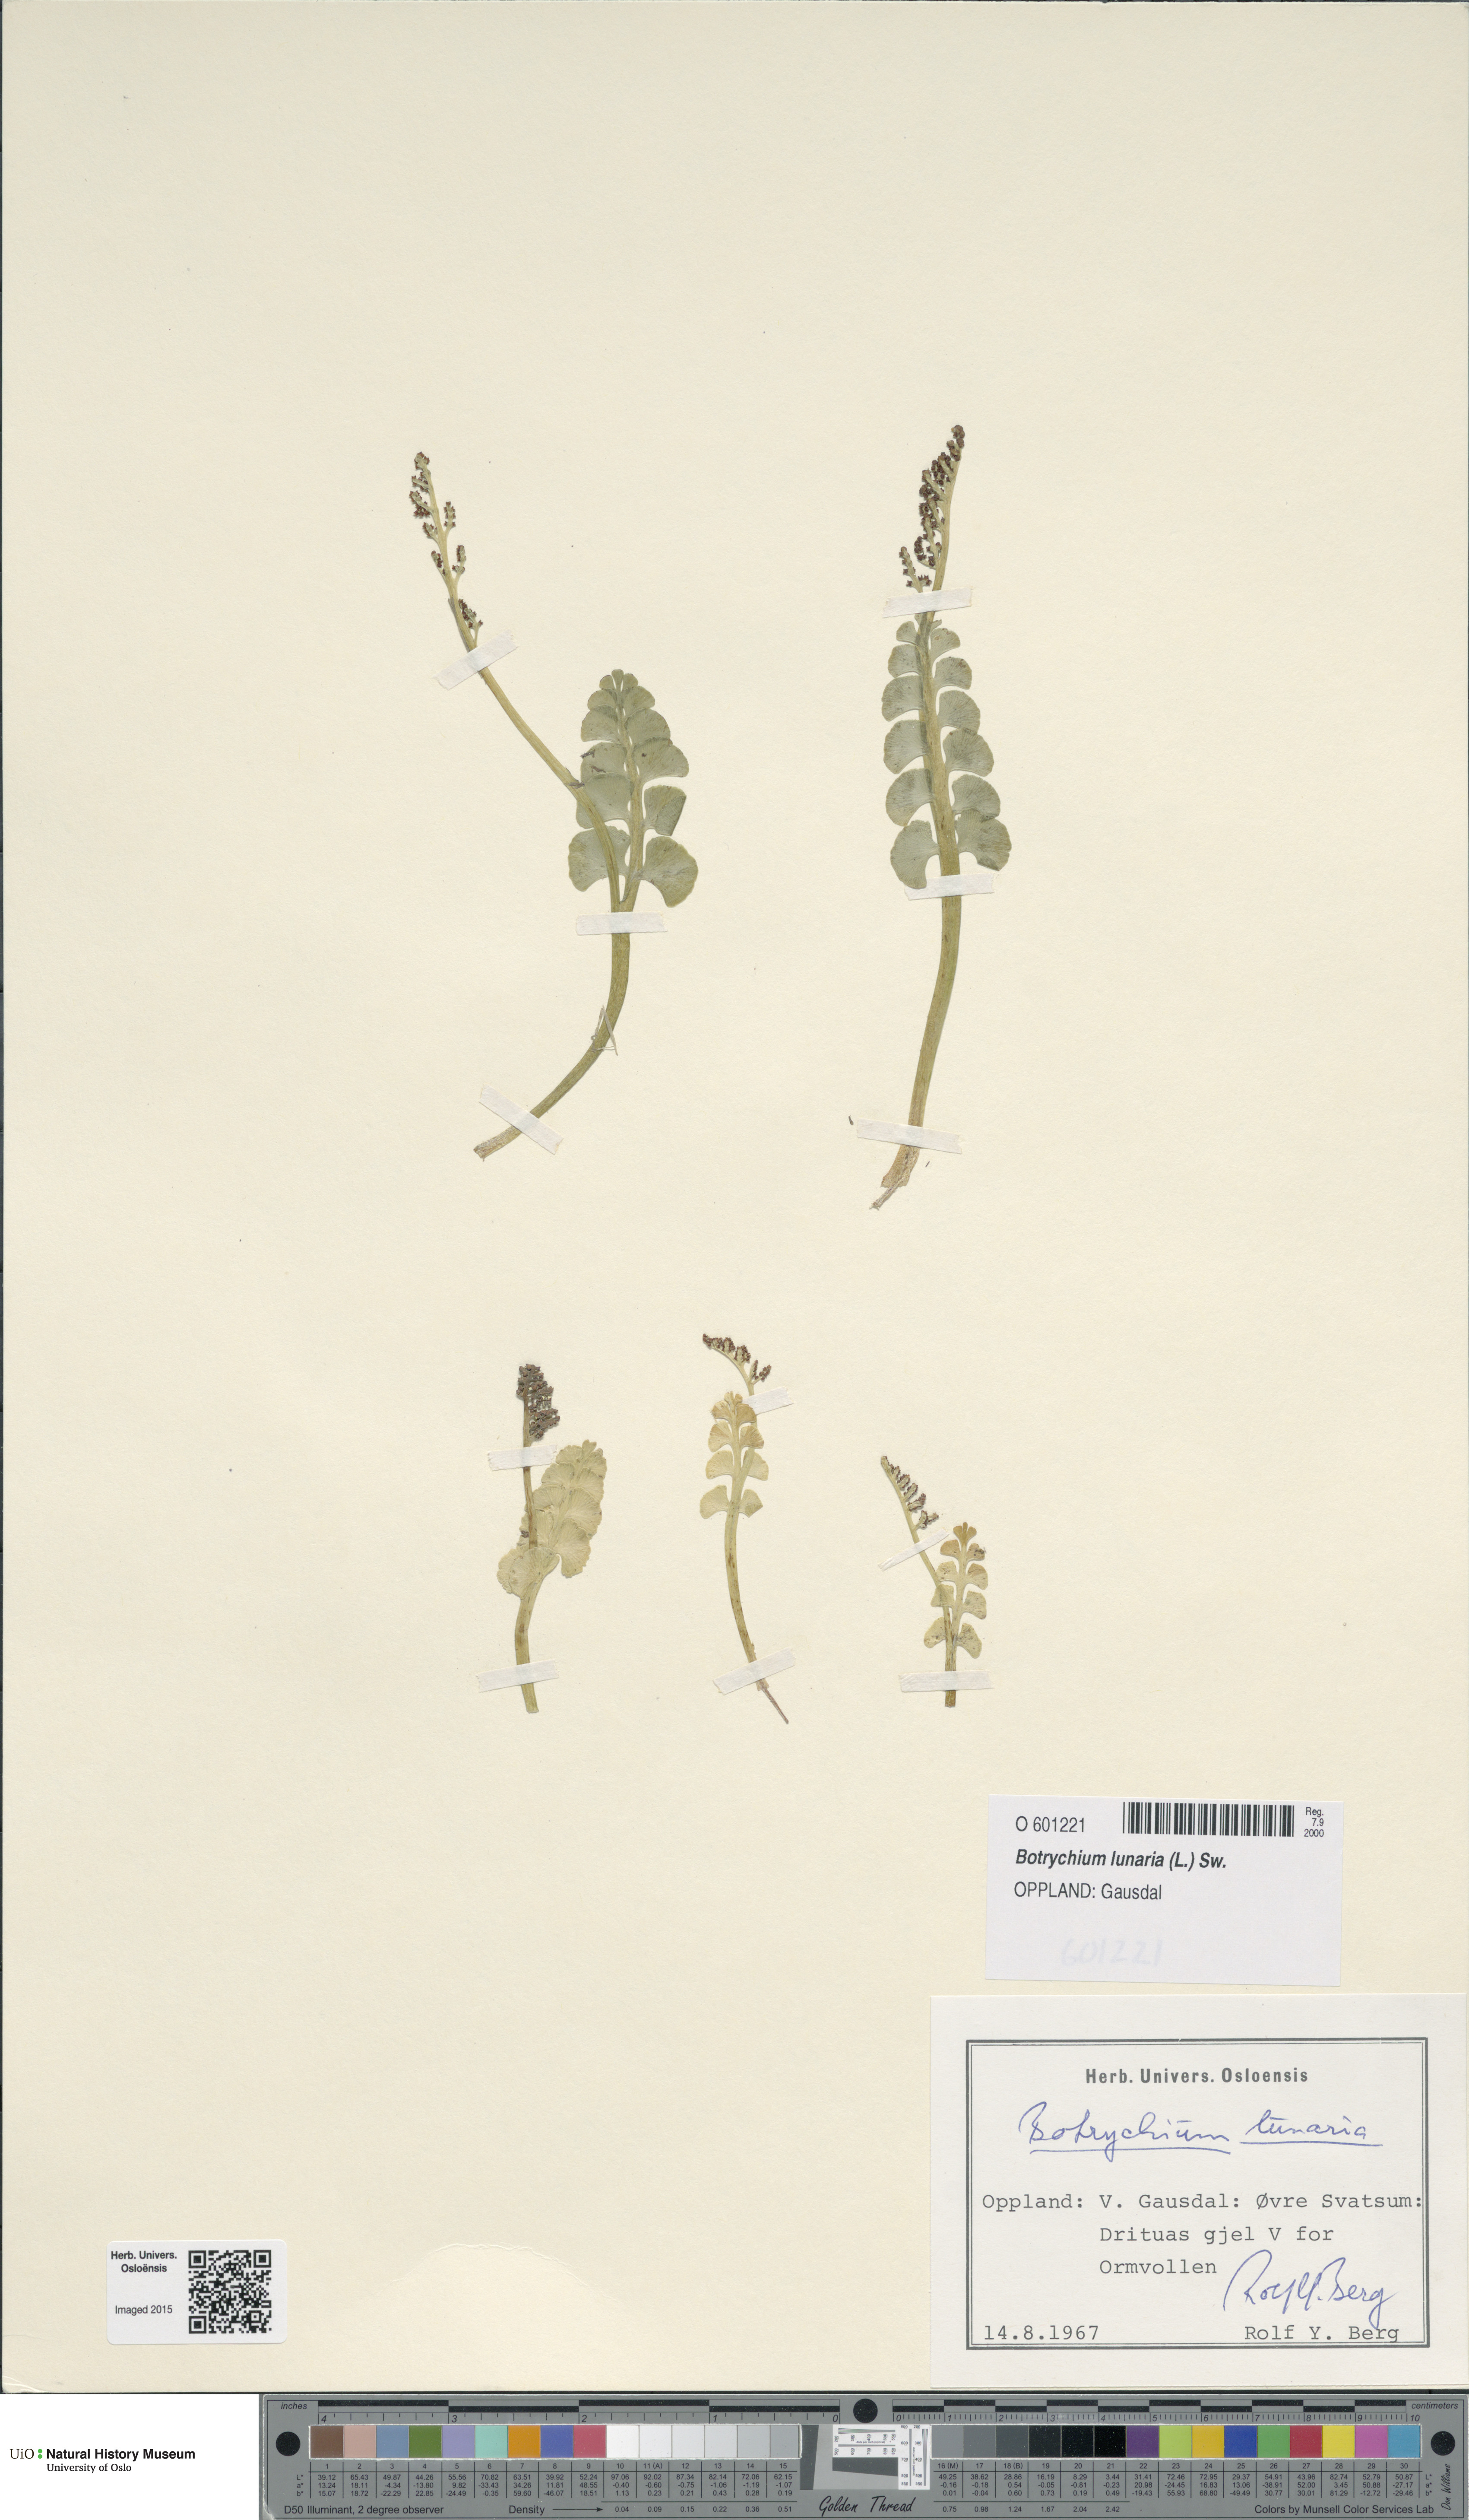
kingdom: Plantae
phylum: Tracheophyta
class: Polypodiopsida
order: Ophioglossales
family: Ophioglossaceae
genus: Botrychium
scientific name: Botrychium lunaria
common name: Moonwort
